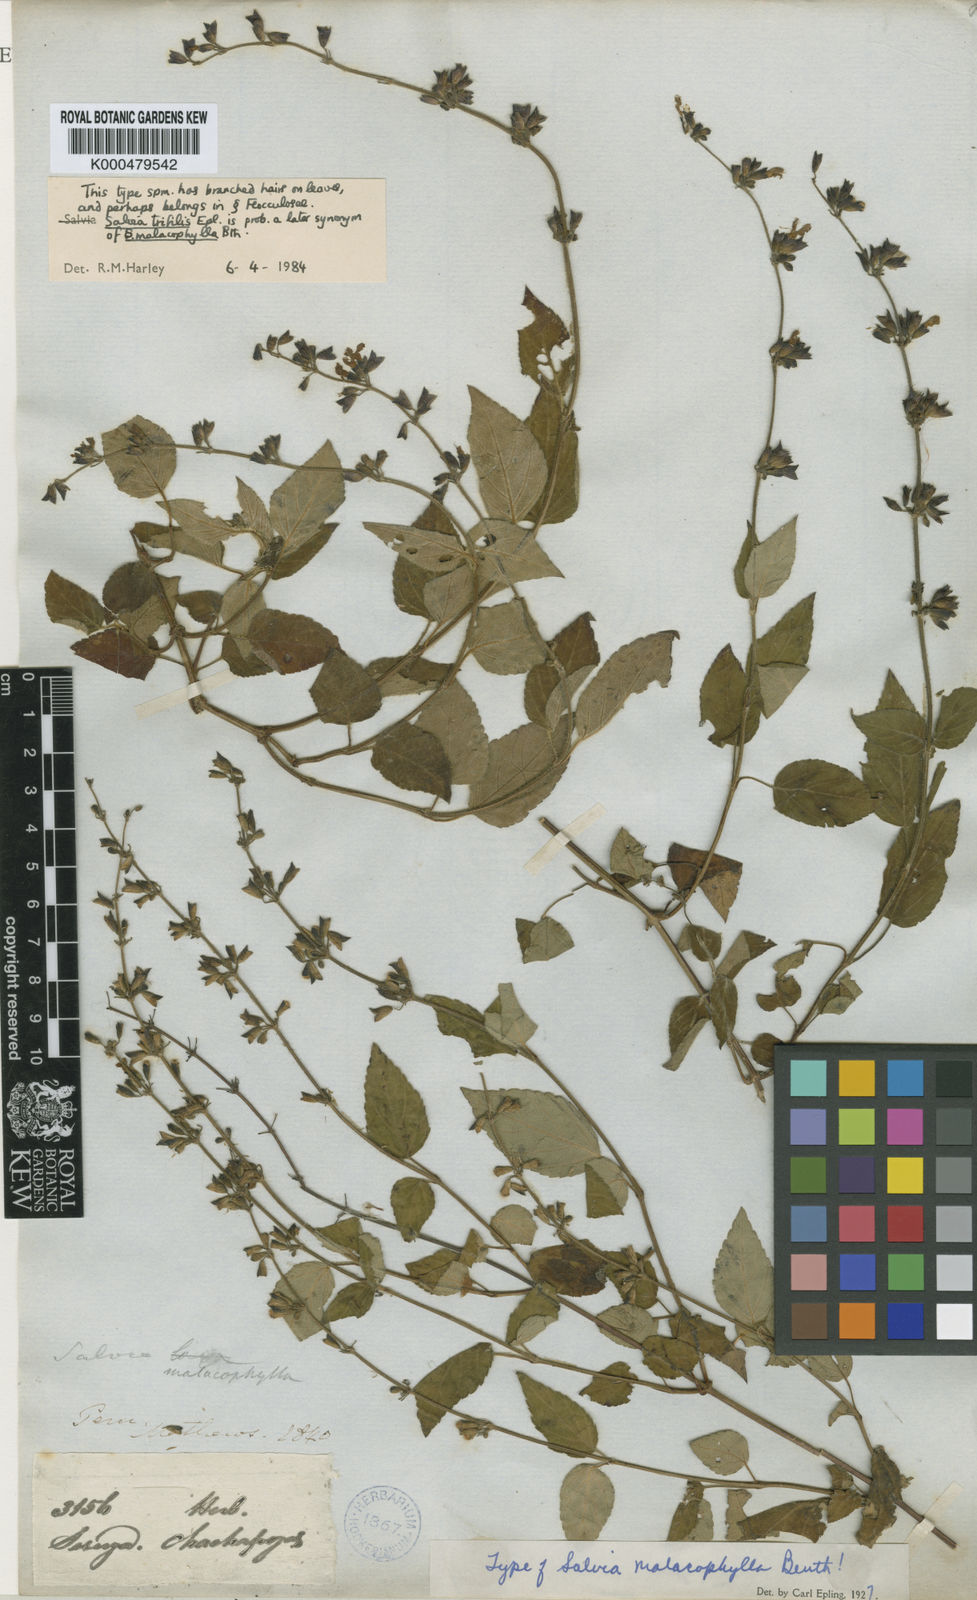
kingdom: Plantae
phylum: Tracheophyta
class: Magnoliopsida
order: Lamiales
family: Lamiaceae
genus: Salvia
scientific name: Salvia loxensis
